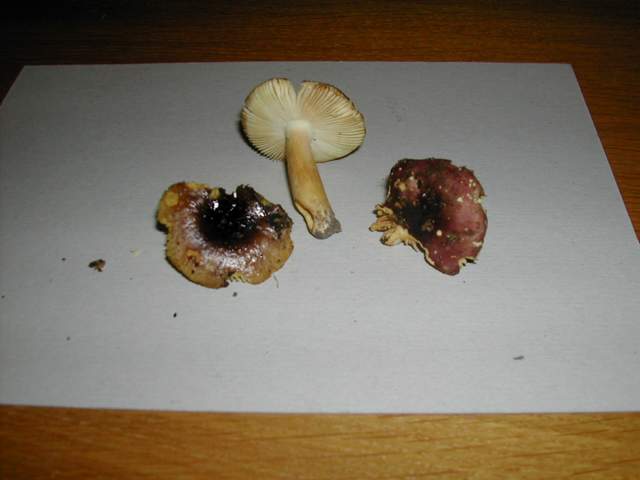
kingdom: Fungi
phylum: Basidiomycota
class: Agaricomycetes
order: Russulales
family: Russulaceae
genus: Russula
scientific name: Russula puellaris
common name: gulstokket skørhat
